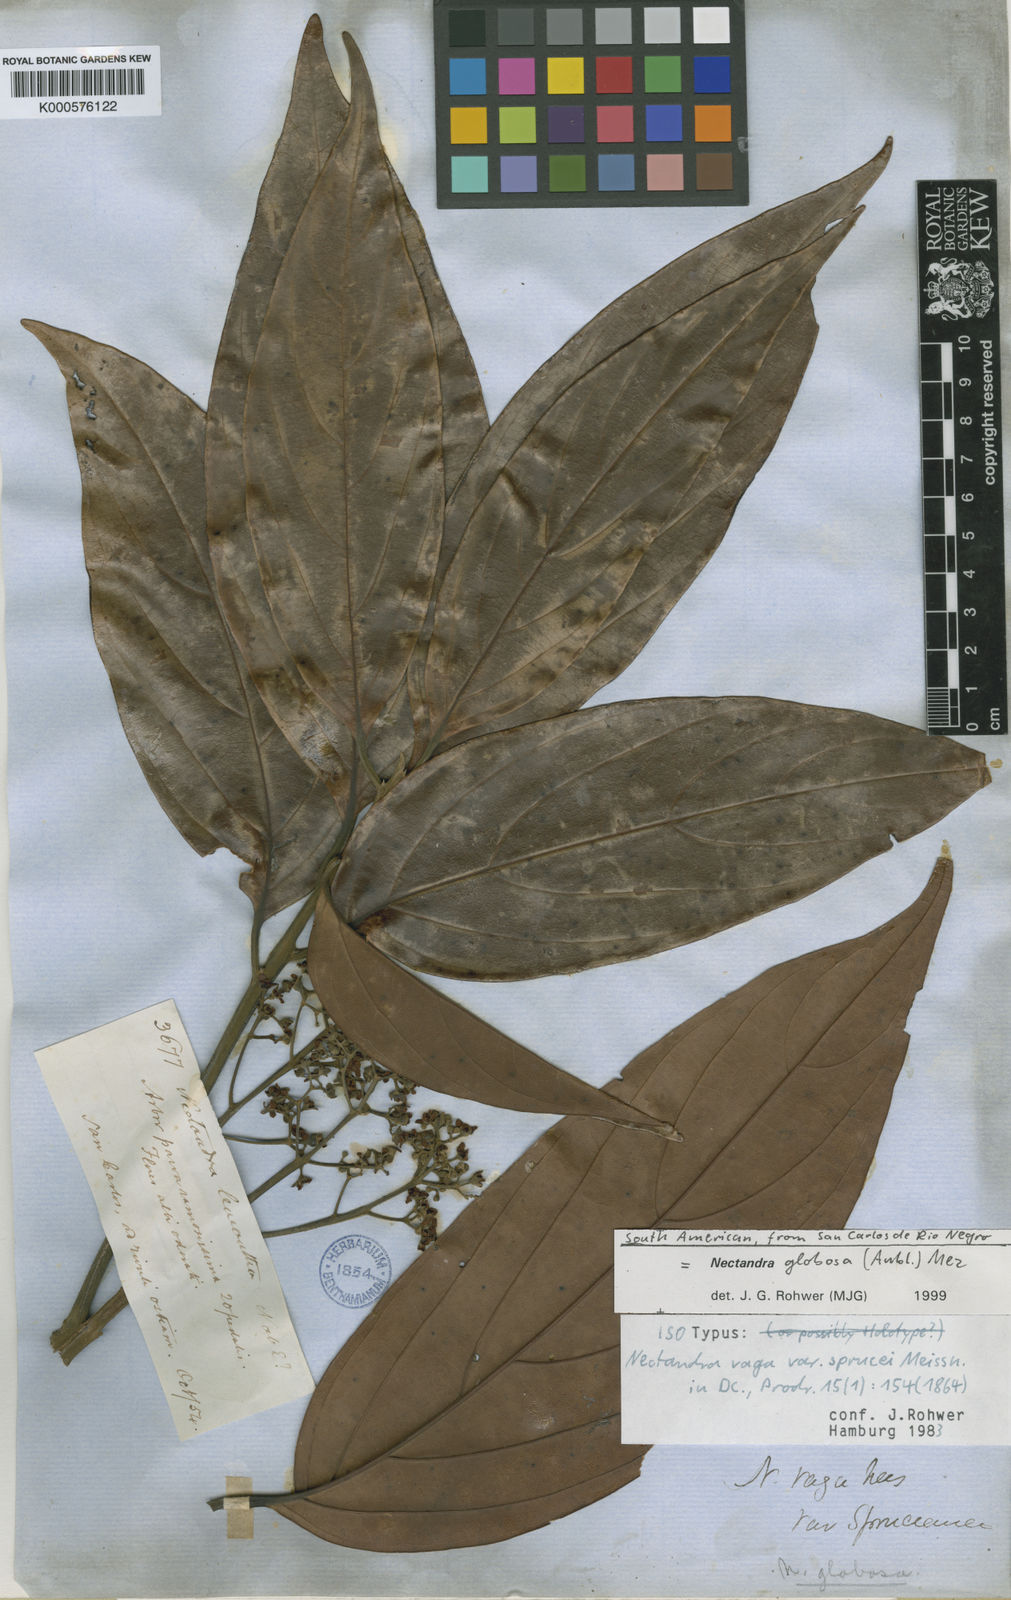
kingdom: Plantae
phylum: Tracheophyta
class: Magnoliopsida
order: Laurales
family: Lauraceae
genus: Nectandra
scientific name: Nectandra globosa
